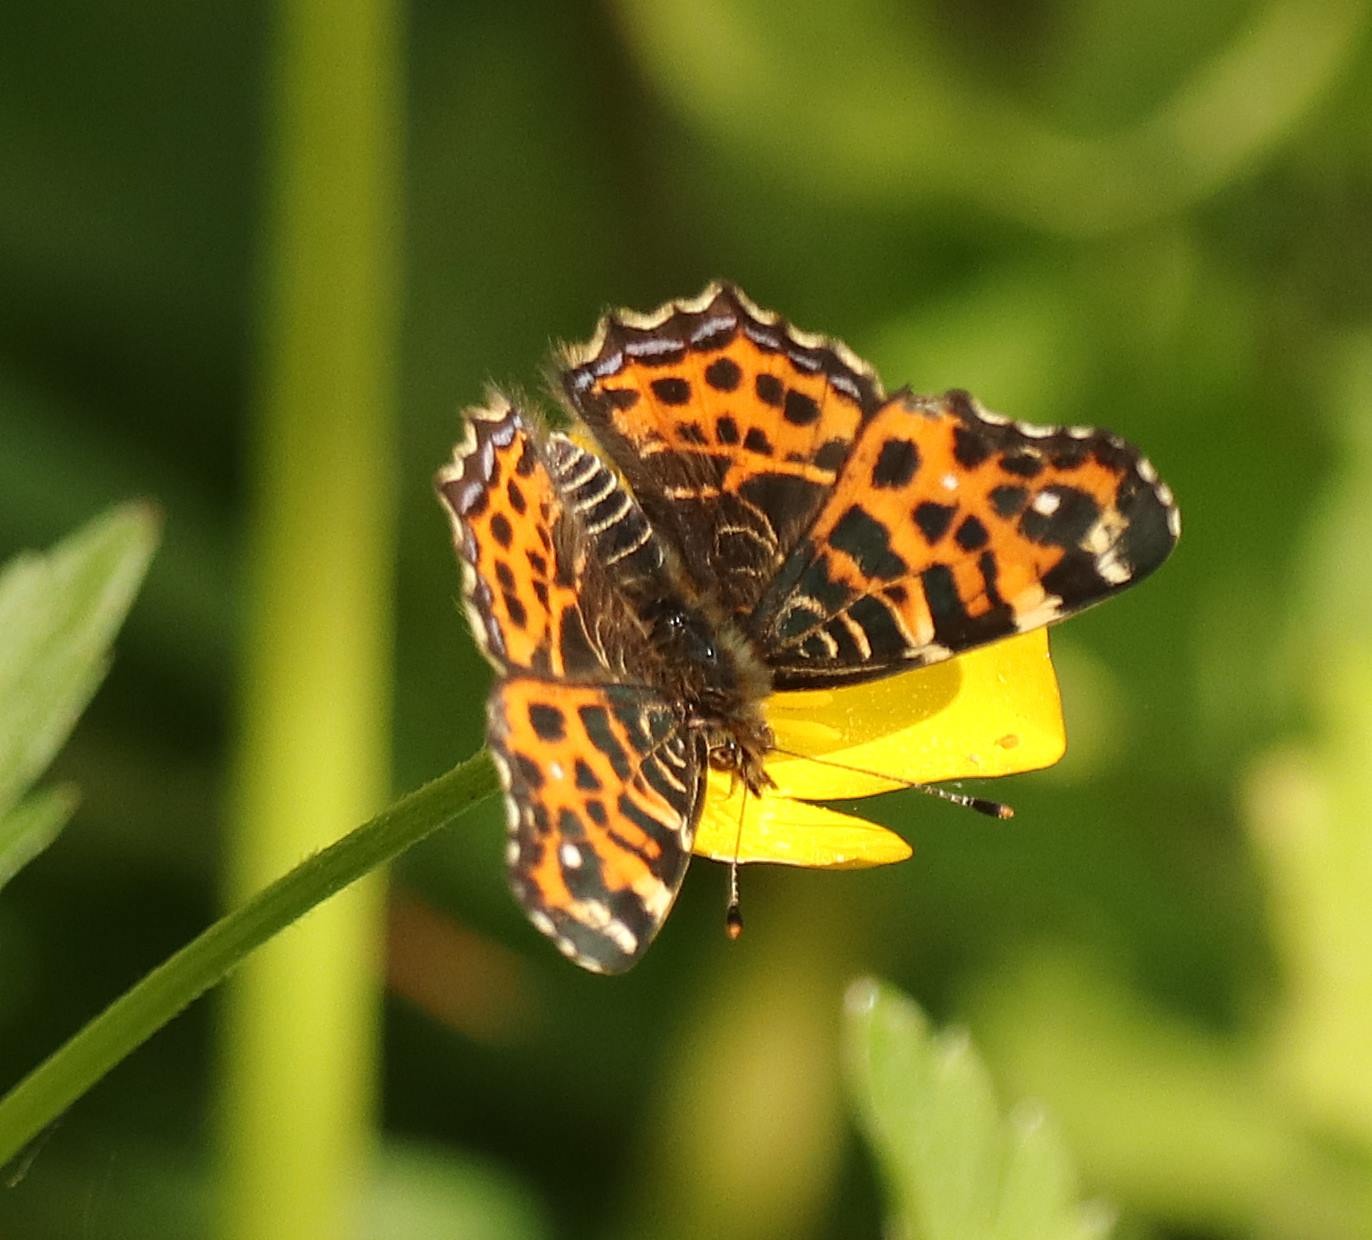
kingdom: Animalia
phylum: Arthropoda
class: Insecta
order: Lepidoptera
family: Nymphalidae
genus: Araschnia
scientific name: Araschnia levana
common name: Nældesommerfugl
